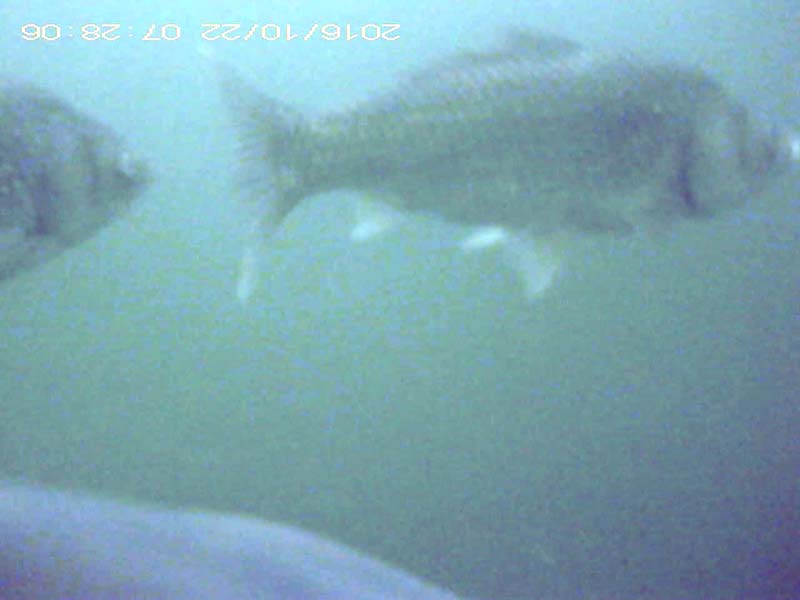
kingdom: Animalia
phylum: Chordata
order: Cypriniformes
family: Cyprinidae
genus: Carassius
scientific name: Carassius
